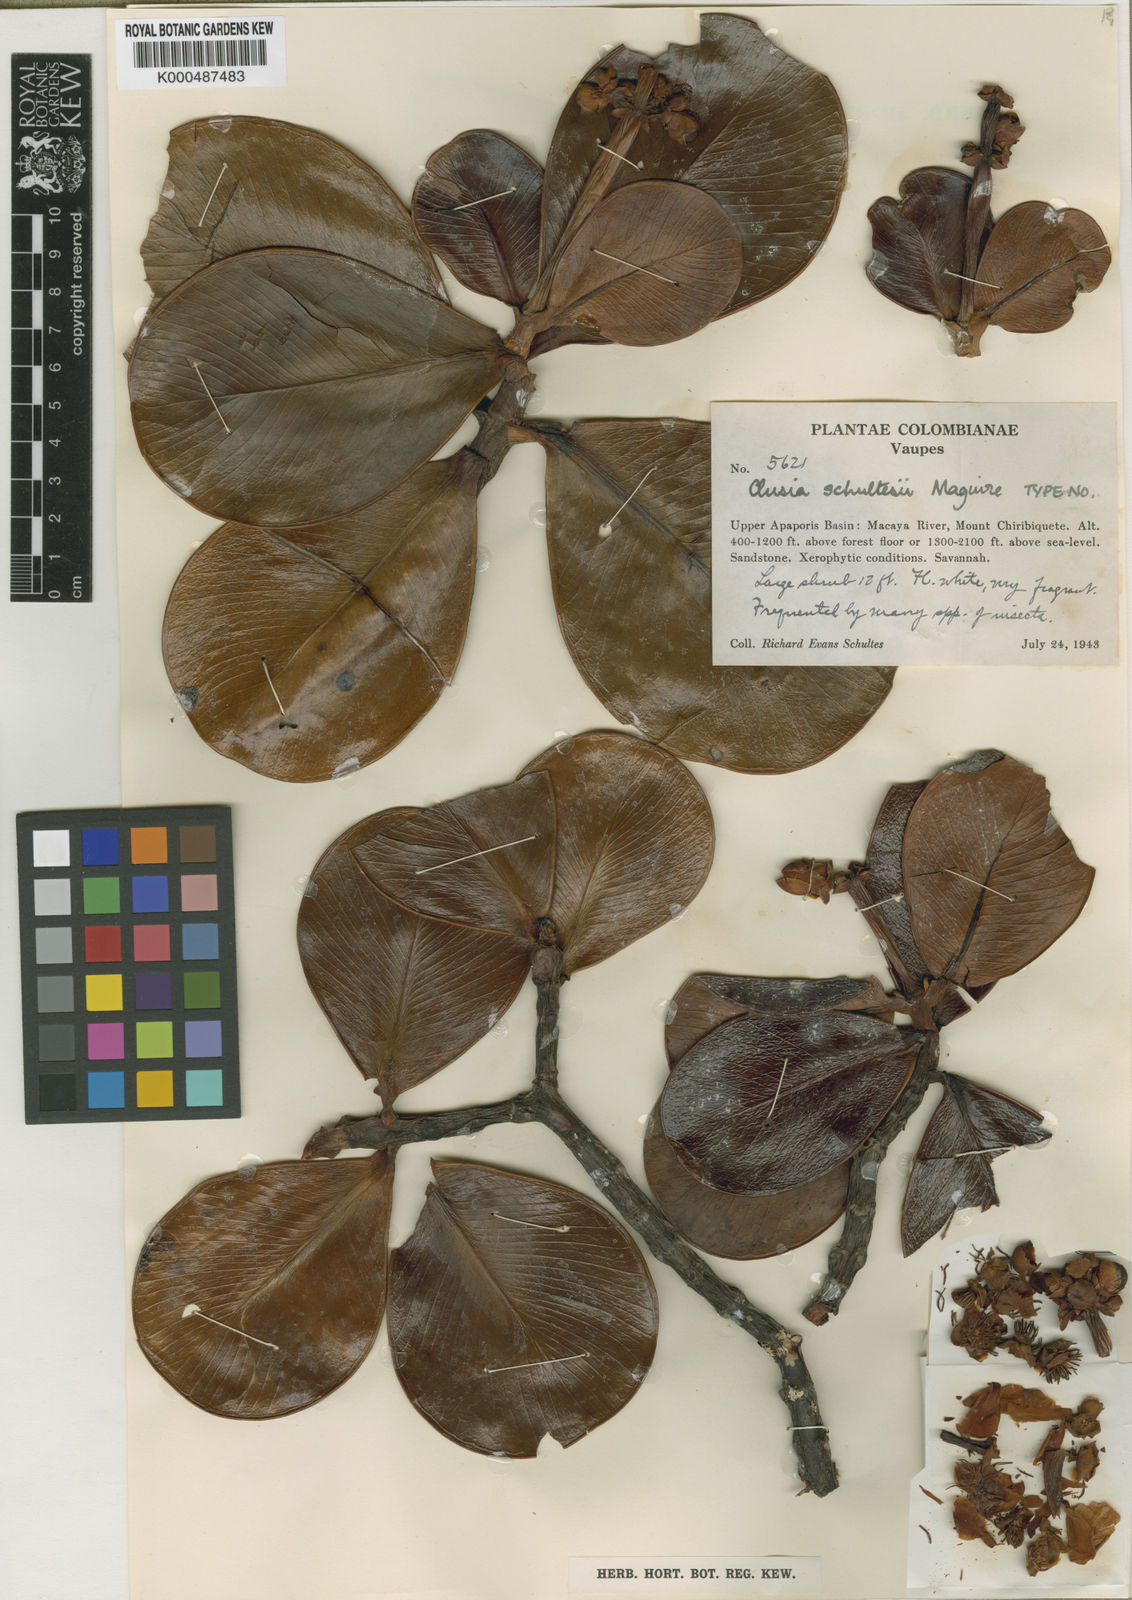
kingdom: Plantae
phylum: Tracheophyta
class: Magnoliopsida
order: Malpighiales
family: Clusiaceae
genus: Clusia
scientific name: Clusia schultesii
